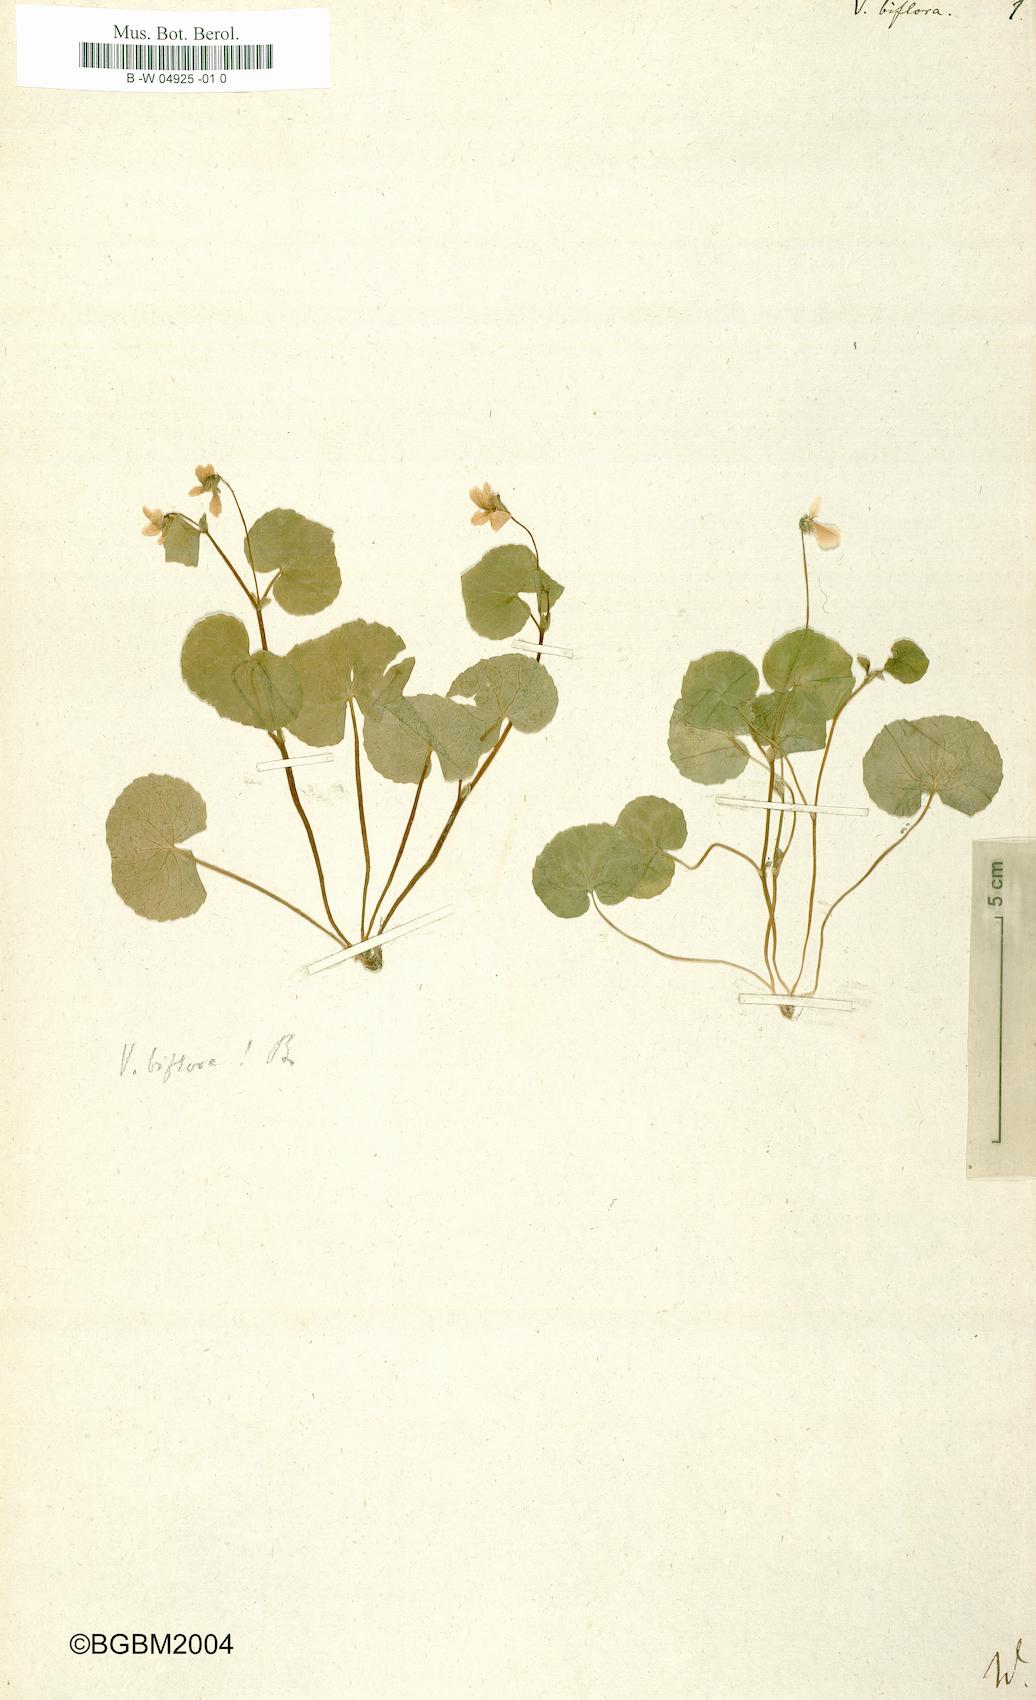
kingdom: Plantae
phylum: Tracheophyta
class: Magnoliopsida
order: Malpighiales
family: Violaceae
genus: Viola
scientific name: Viola biflora
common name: Alpine yellow violet
